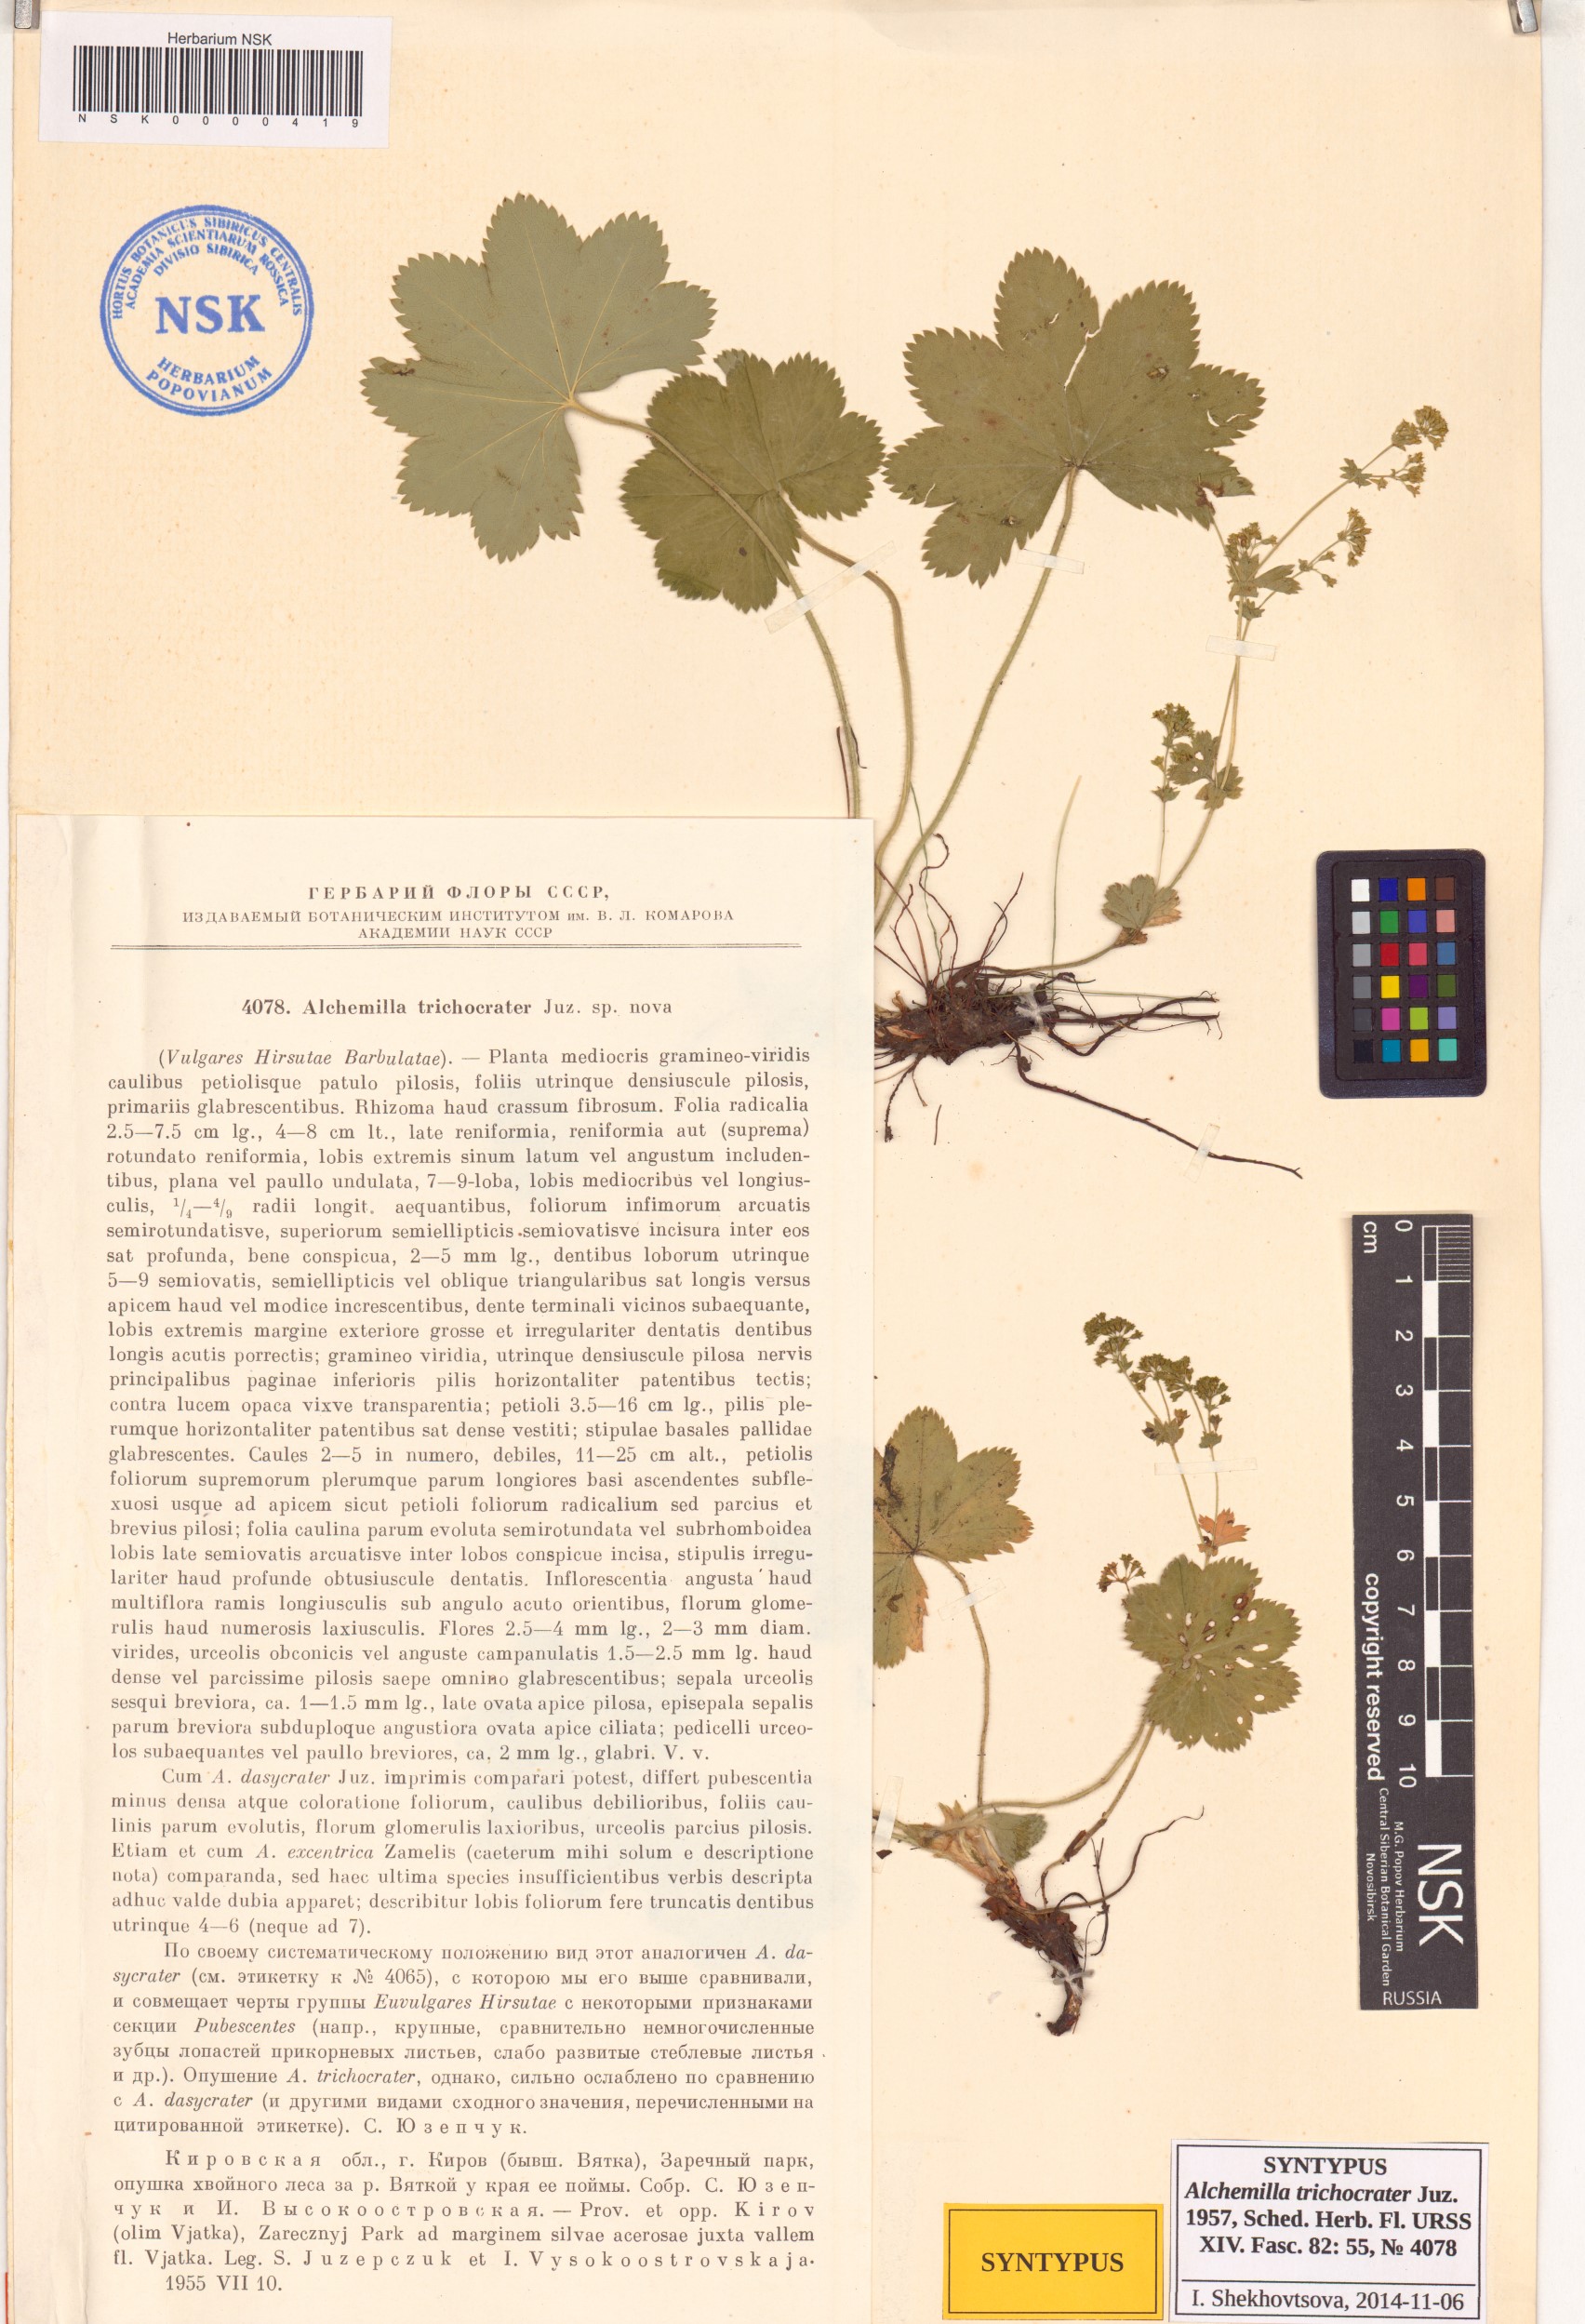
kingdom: Plantae
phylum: Tracheophyta
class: Magnoliopsida
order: Rosales
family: Rosaceae
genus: Alchemilla
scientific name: Alchemilla trichocrater
